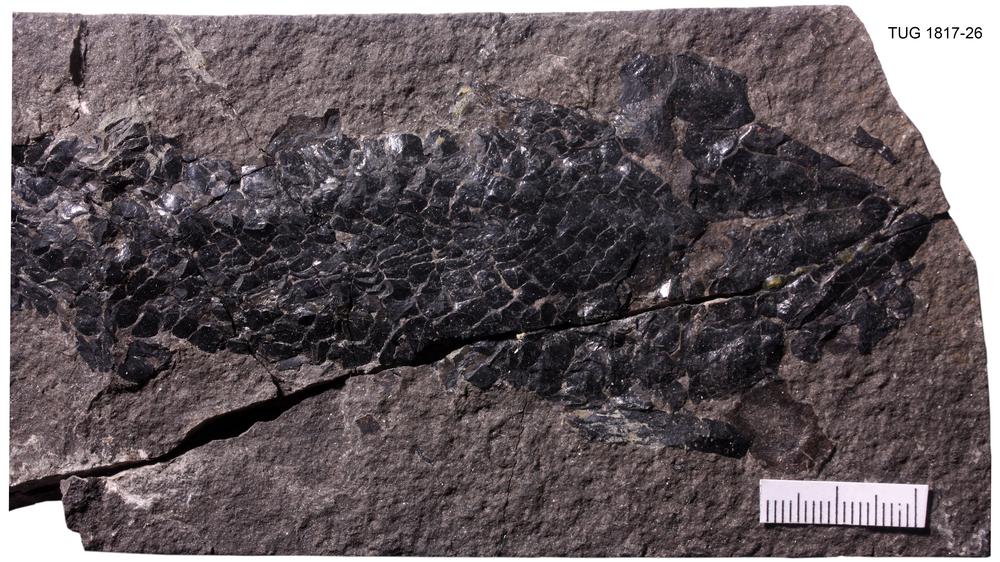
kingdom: Animalia
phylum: Chordata
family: Thursiidae
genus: Thursius
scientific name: Thursius pholidotus
